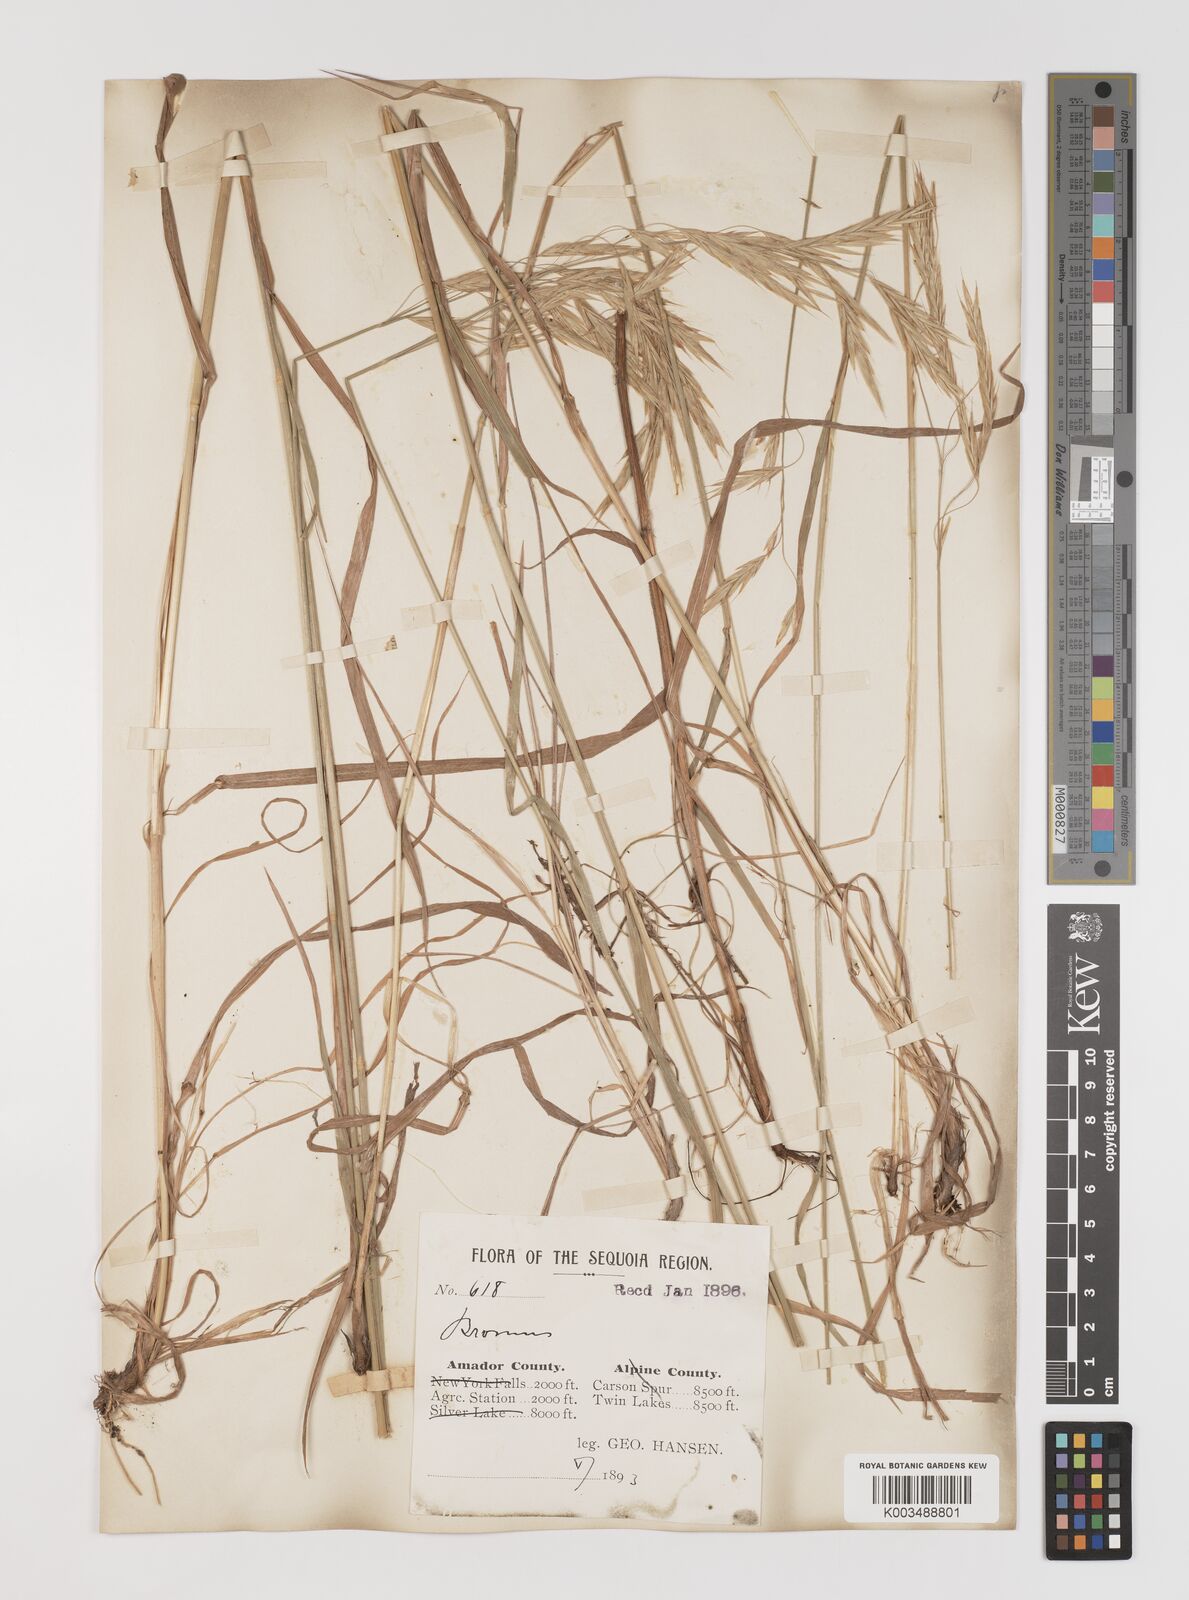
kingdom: Plantae
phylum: Tracheophyta
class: Liliopsida
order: Poales
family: Poaceae
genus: Bromus
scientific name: Bromus
